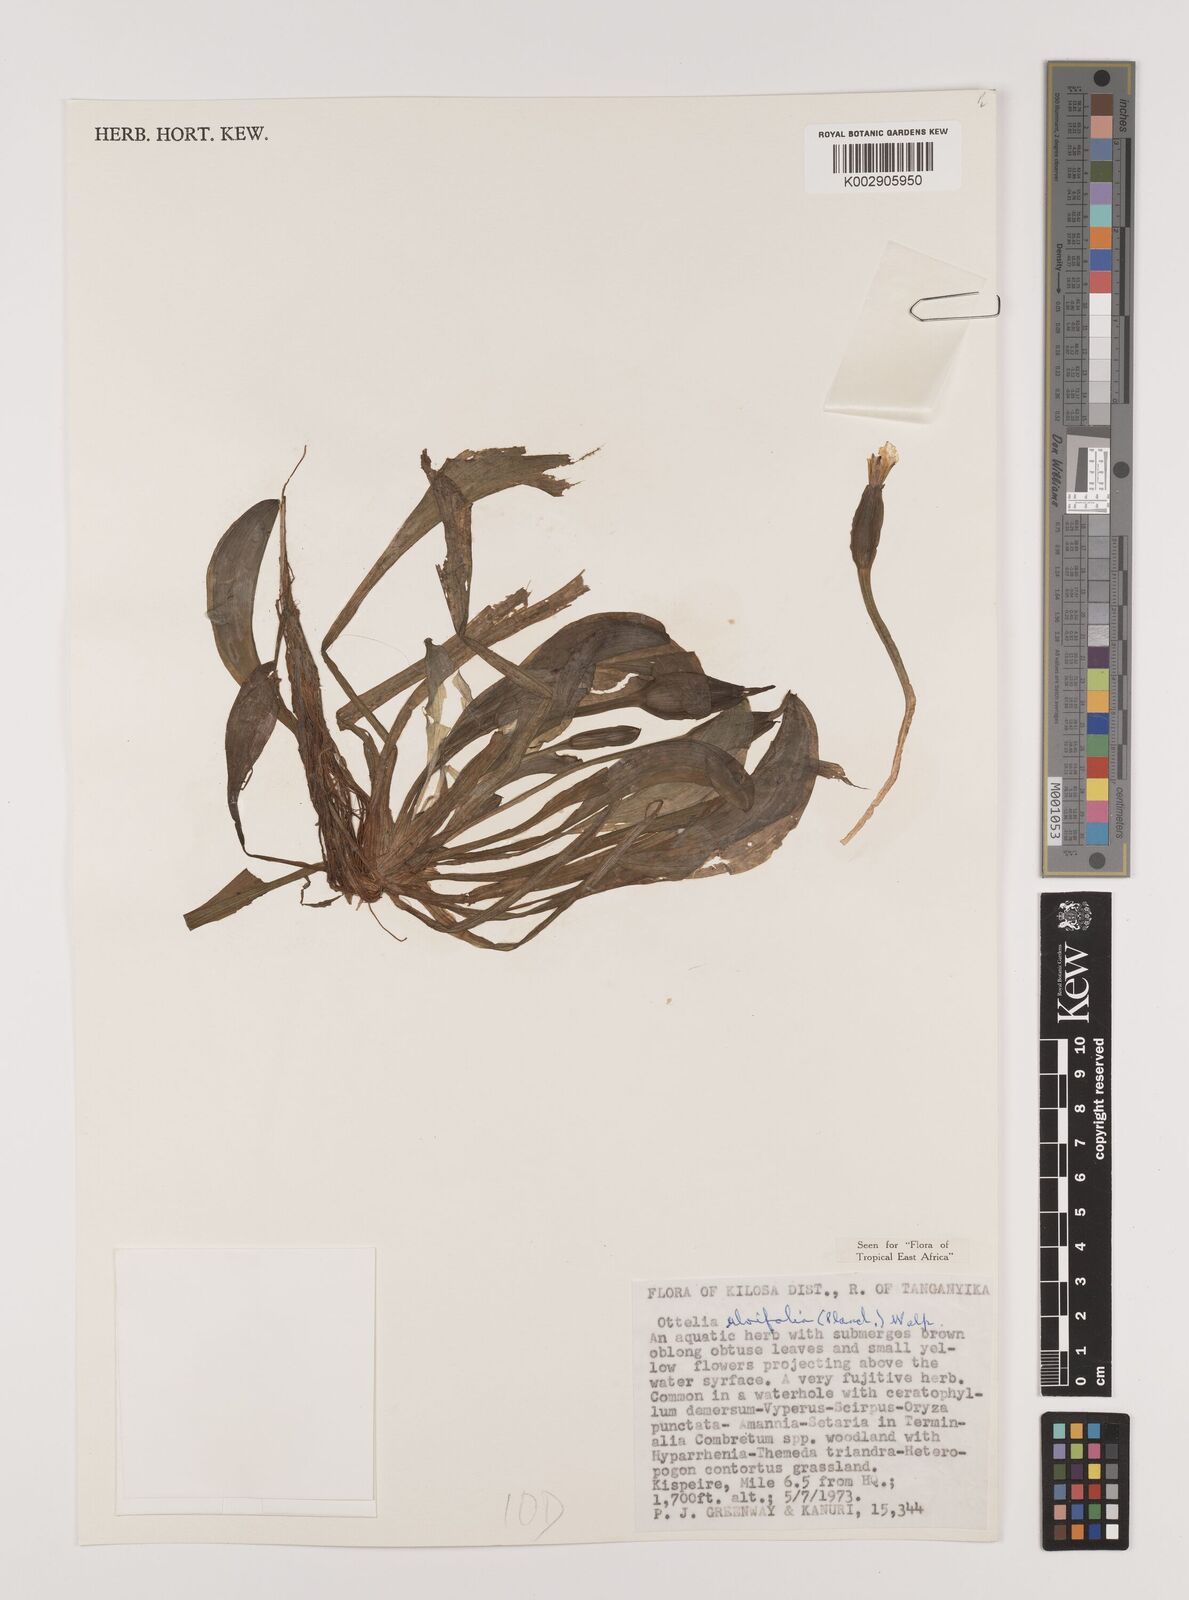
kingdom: Plantae
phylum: Tracheophyta
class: Liliopsida
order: Alismatales
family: Hydrocharitaceae
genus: Ottelia
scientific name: Ottelia ulvifolia
